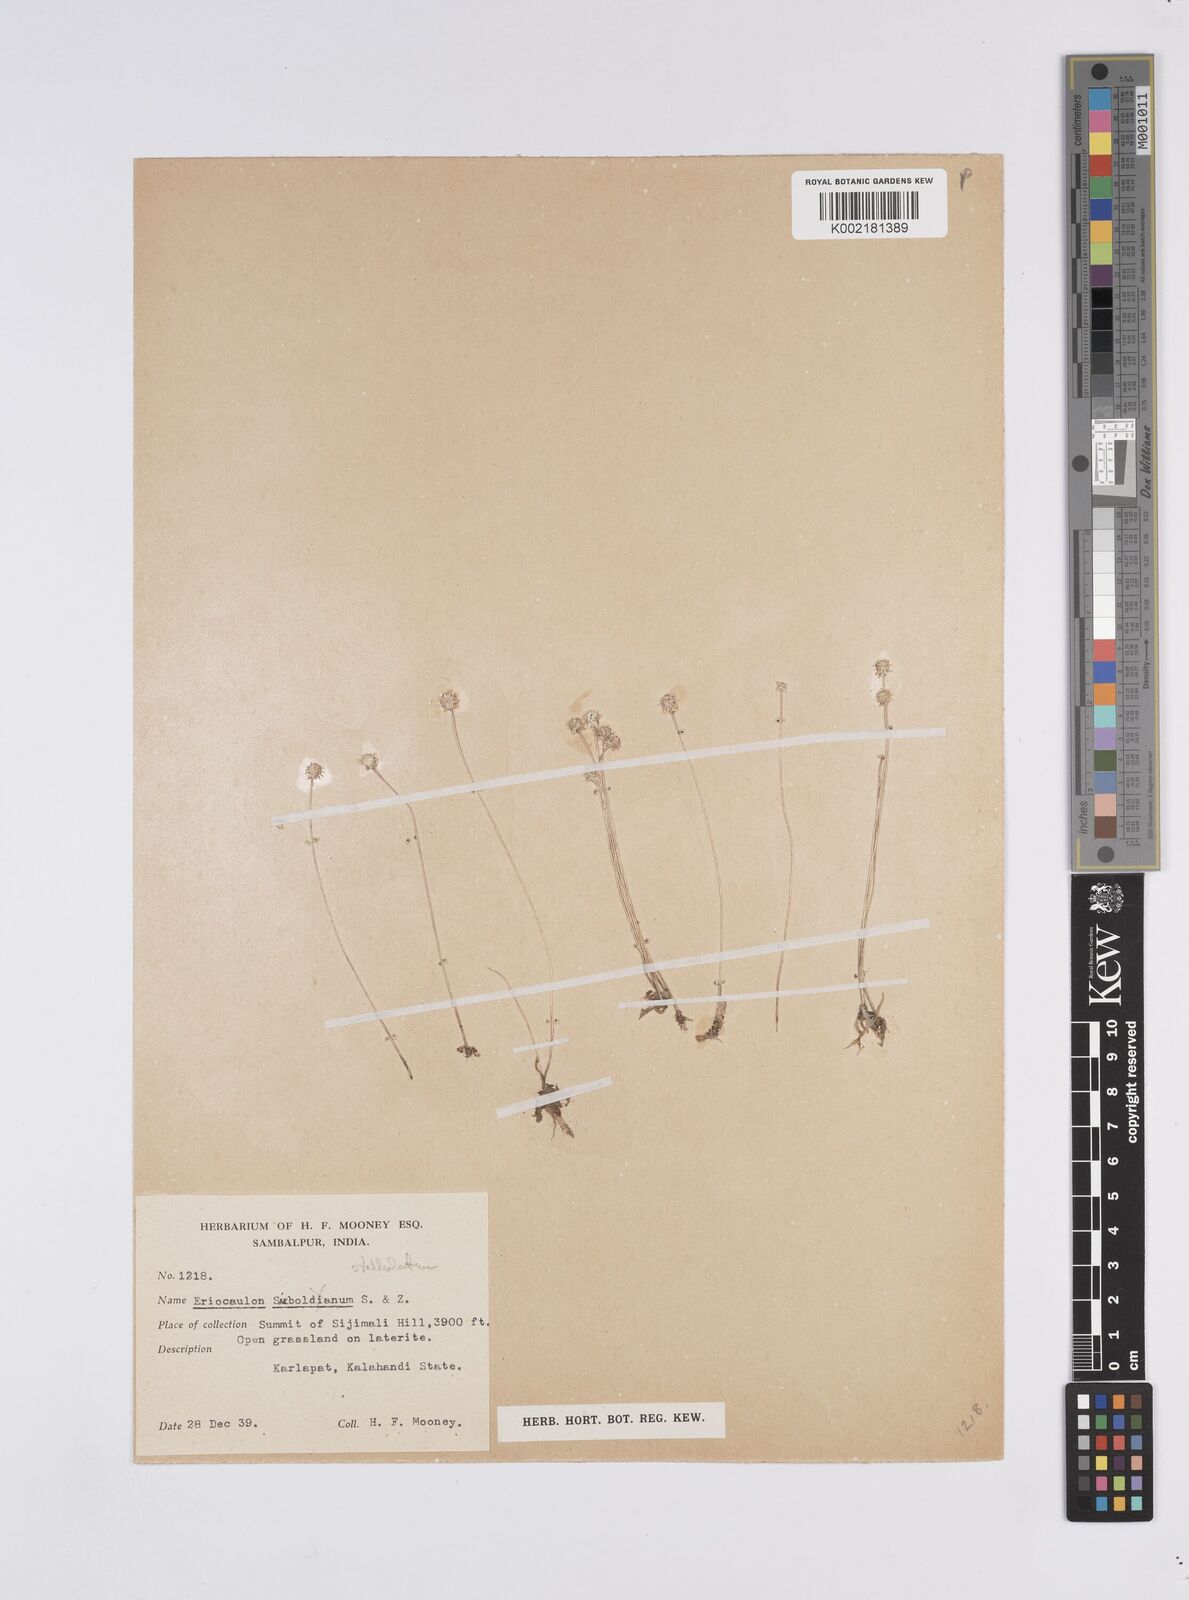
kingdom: Plantae
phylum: Tracheophyta
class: Liliopsida
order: Poales
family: Eriocaulaceae
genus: Eriocaulon
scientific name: Eriocaulon stellulatum
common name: Starry pipewort
